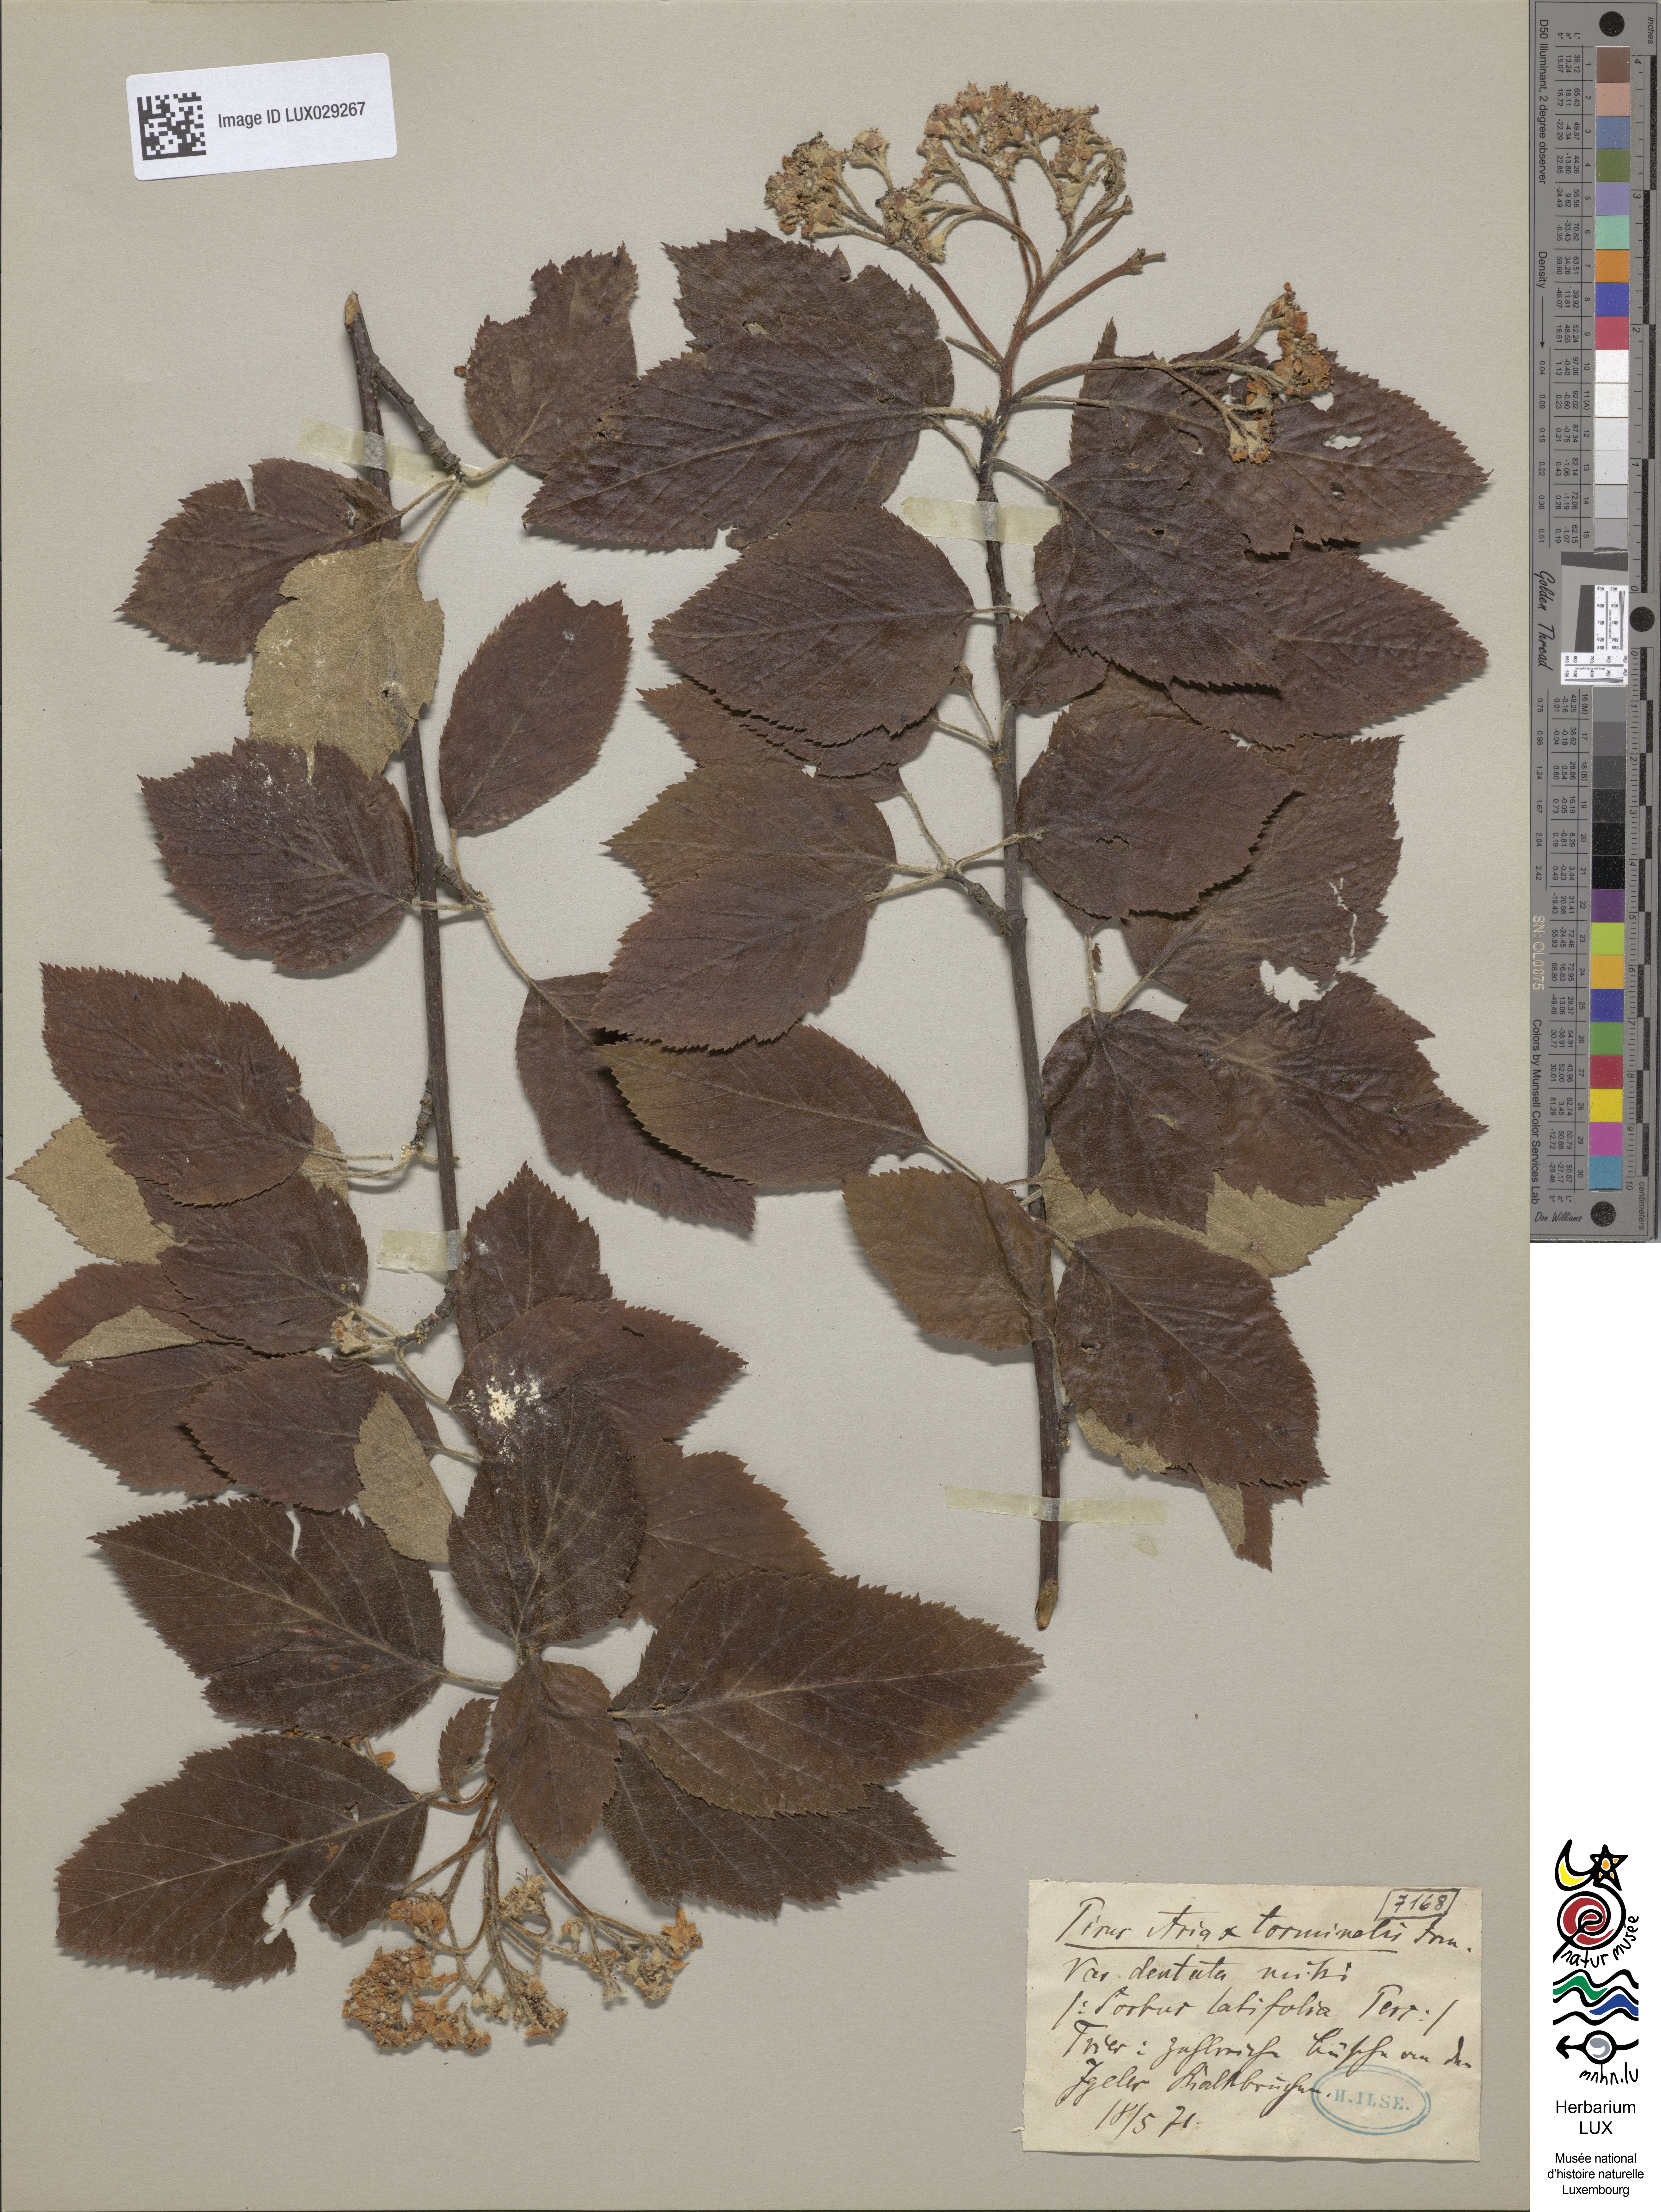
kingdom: Plantae
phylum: Tracheophyta
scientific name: Tracheophyta
